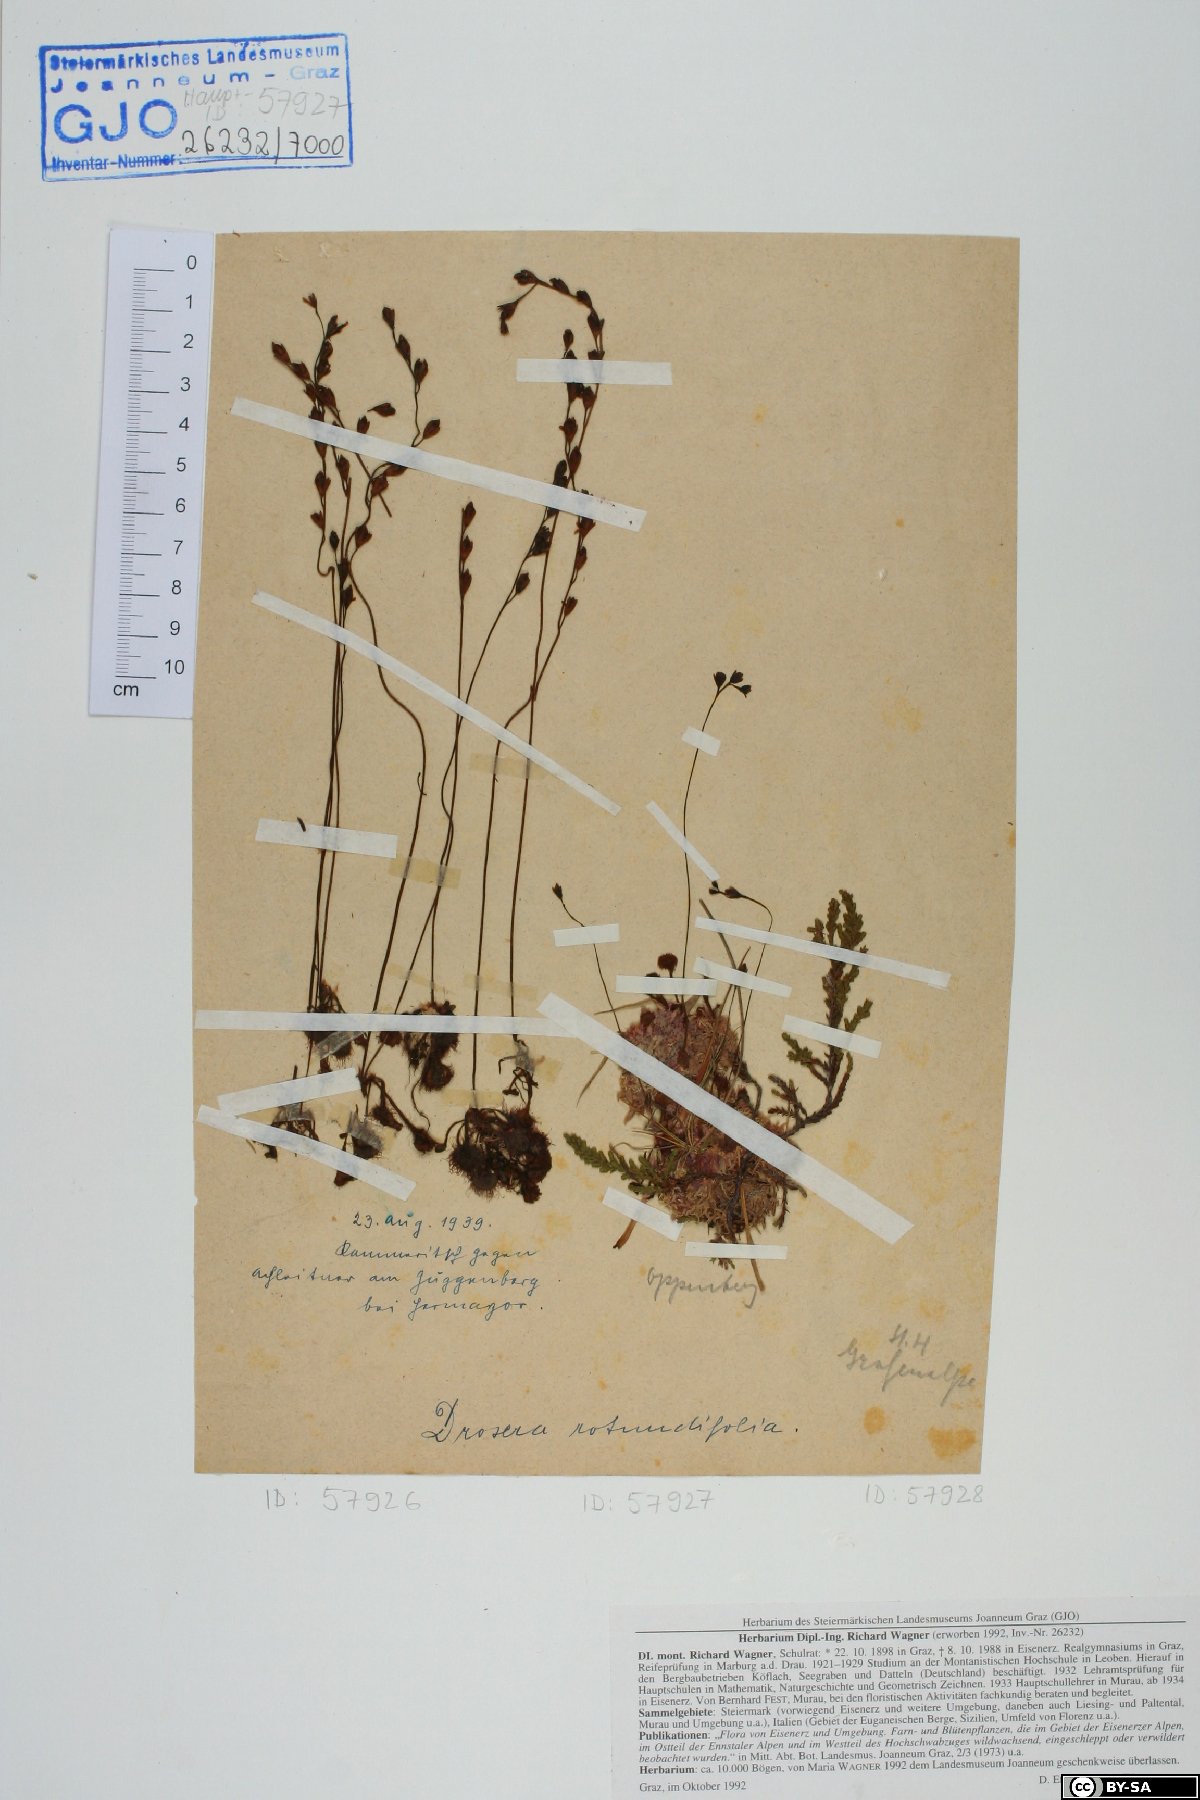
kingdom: Plantae
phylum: Tracheophyta
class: Magnoliopsida
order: Caryophyllales
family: Droseraceae
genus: Drosera
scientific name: Drosera rotundifolia
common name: Round-leaved sundew
